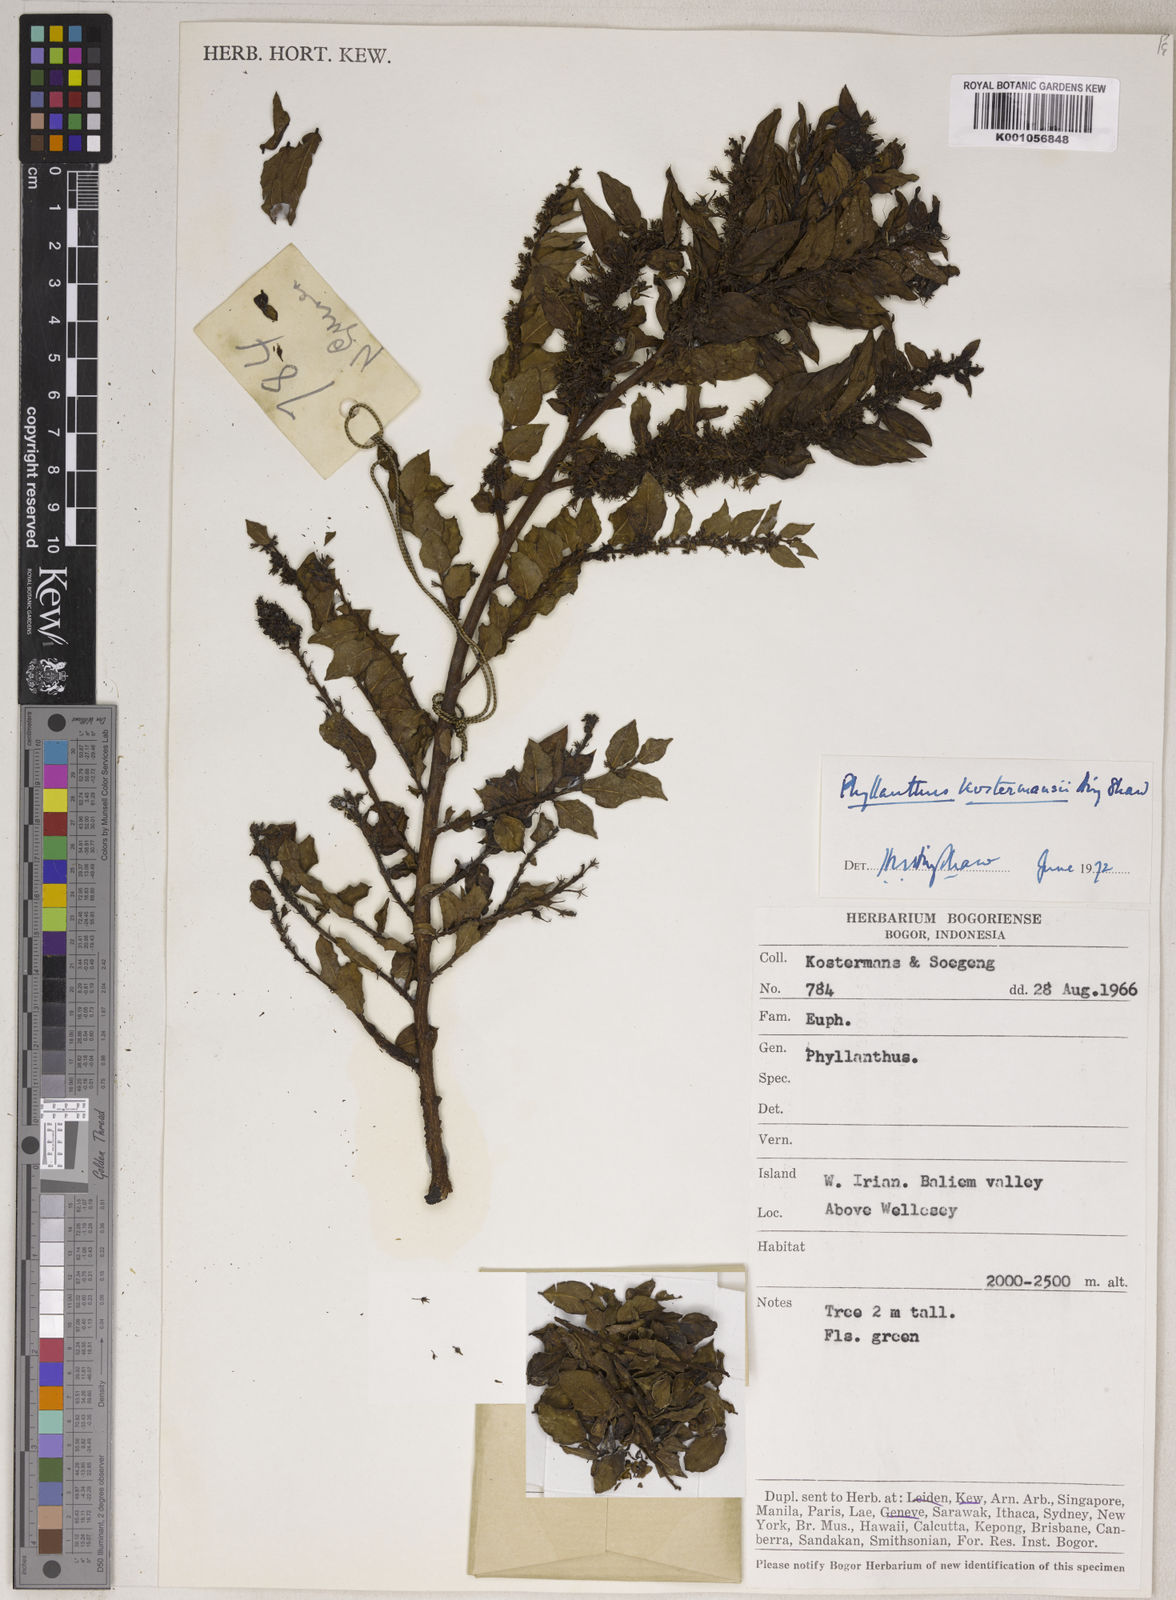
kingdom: Plantae
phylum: Tracheophyta
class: Magnoliopsida
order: Malpighiales
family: Phyllanthaceae
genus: Phyllanthus
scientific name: Phyllanthus kostermansii
